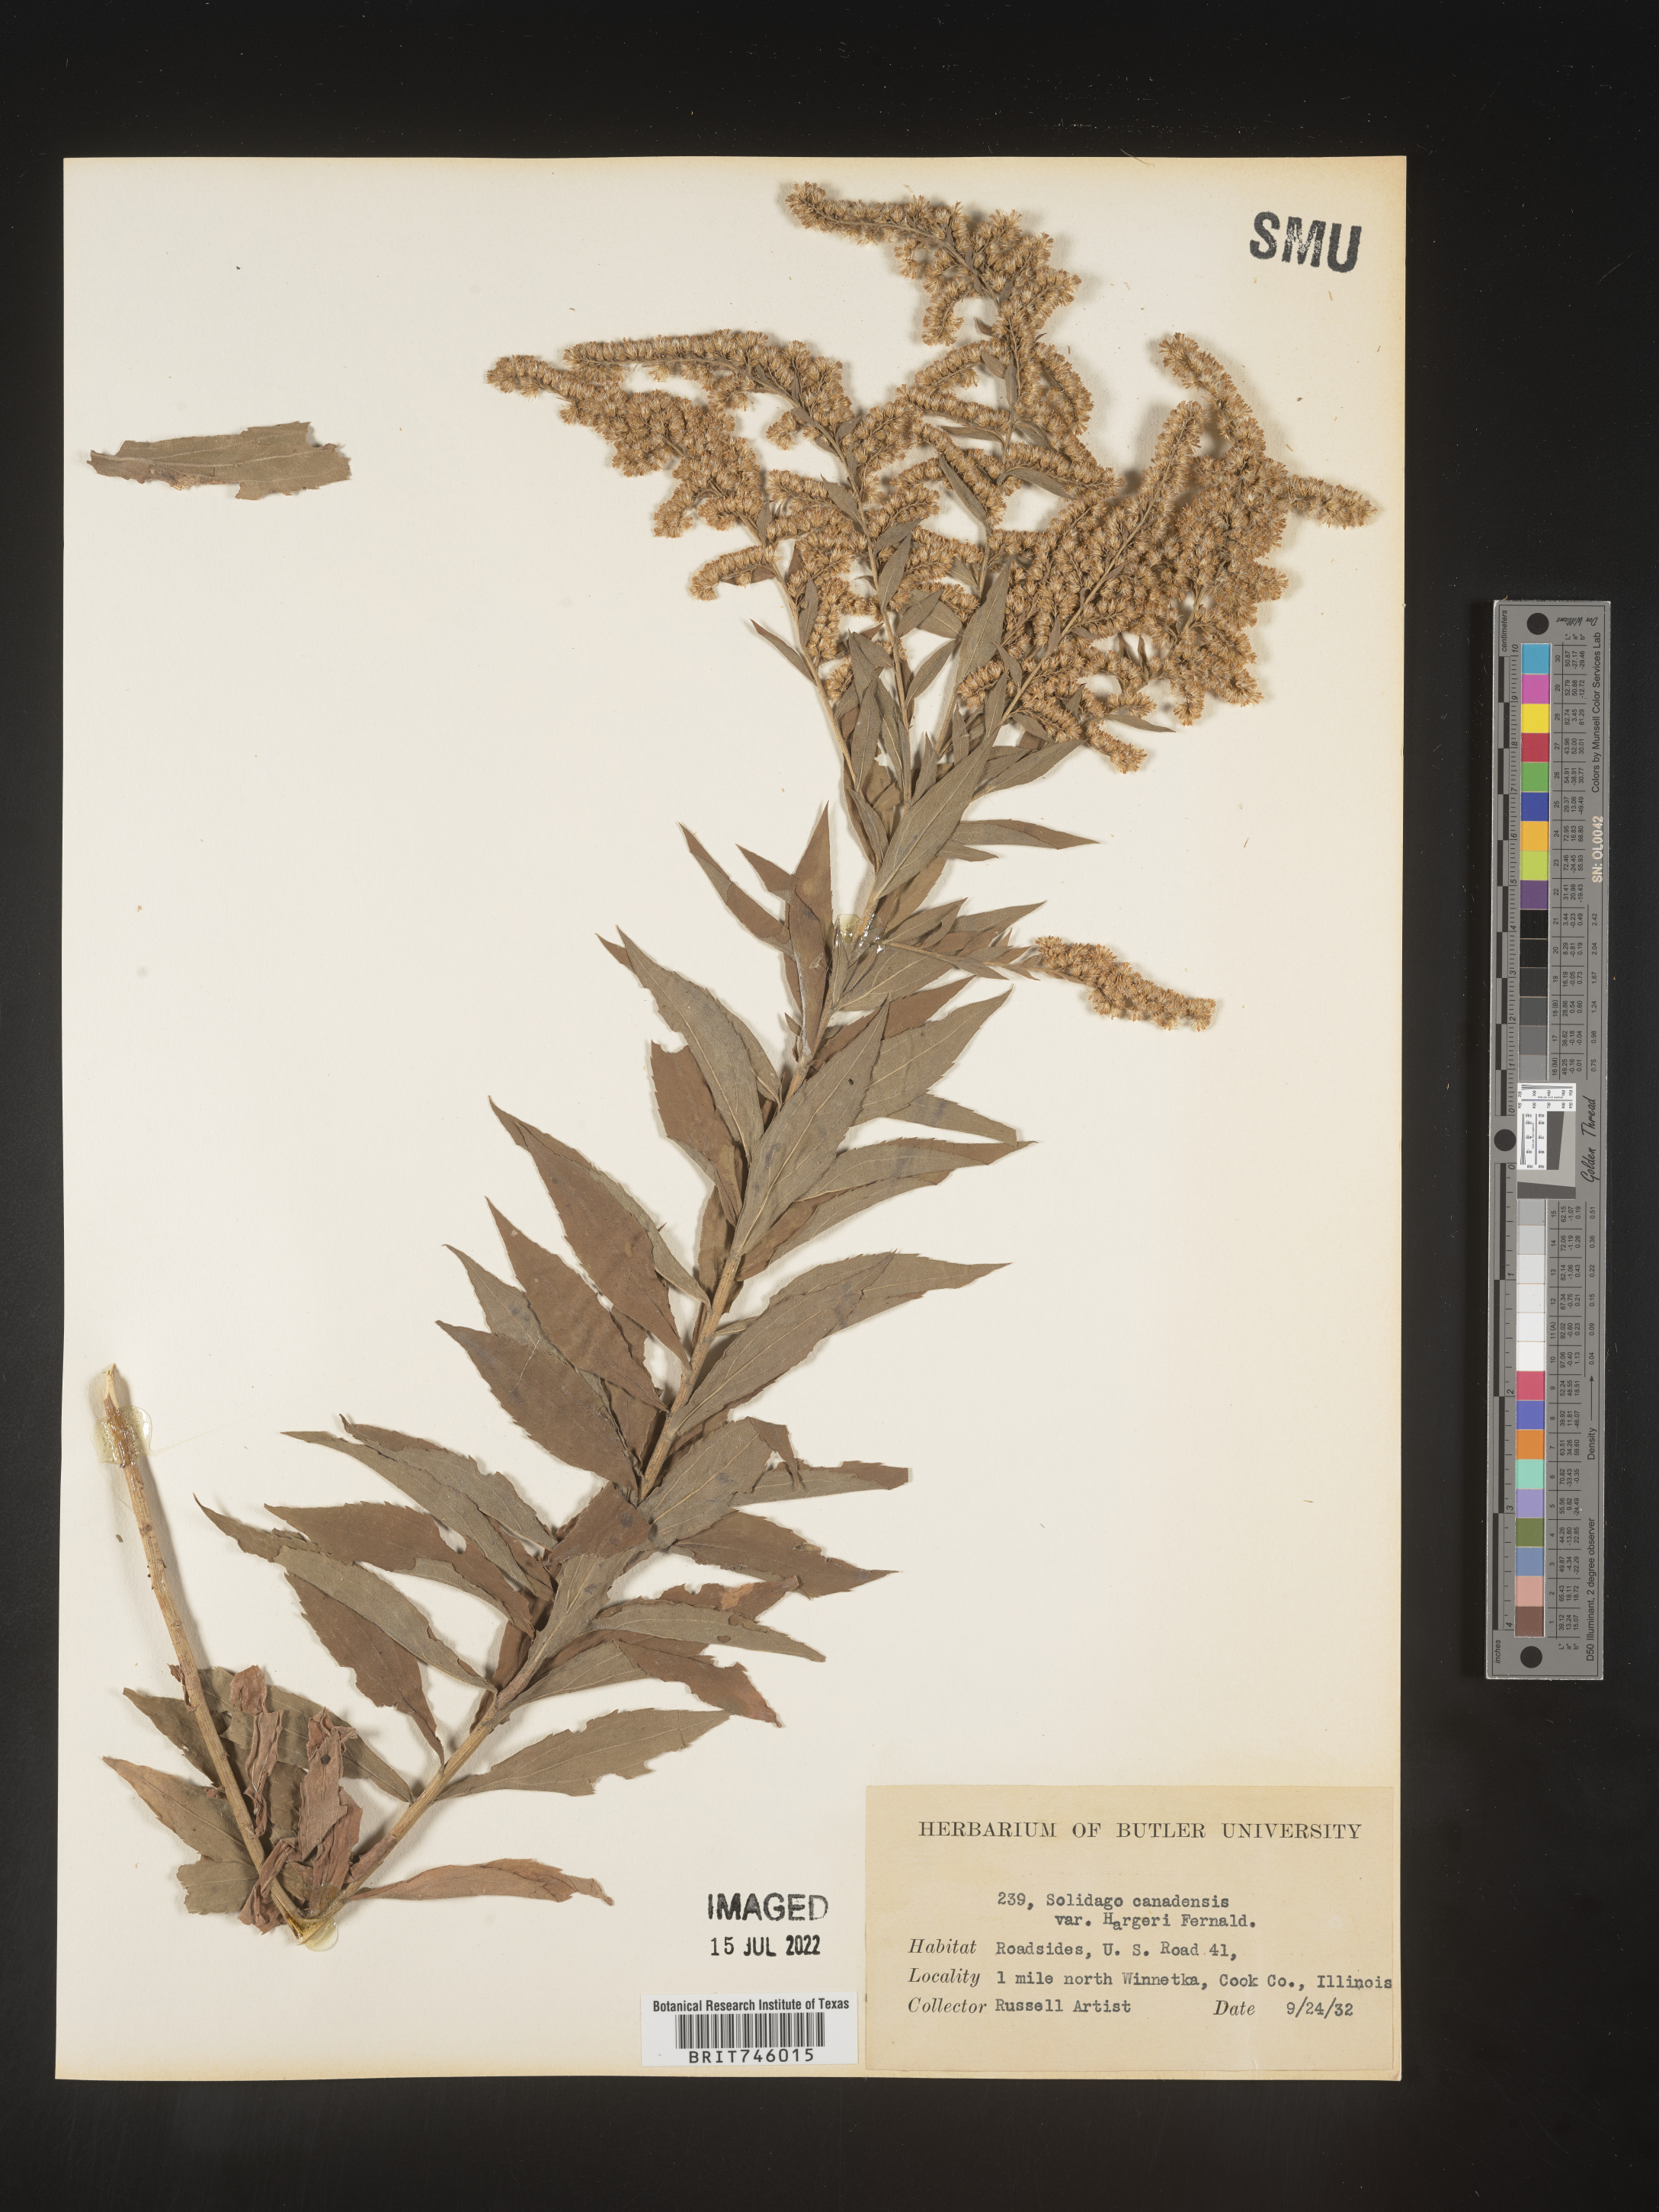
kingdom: Plantae
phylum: Tracheophyta
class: Magnoliopsida
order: Asterales
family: Asteraceae
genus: Solidago
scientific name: Solidago canadensis
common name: Canada goldenrod
